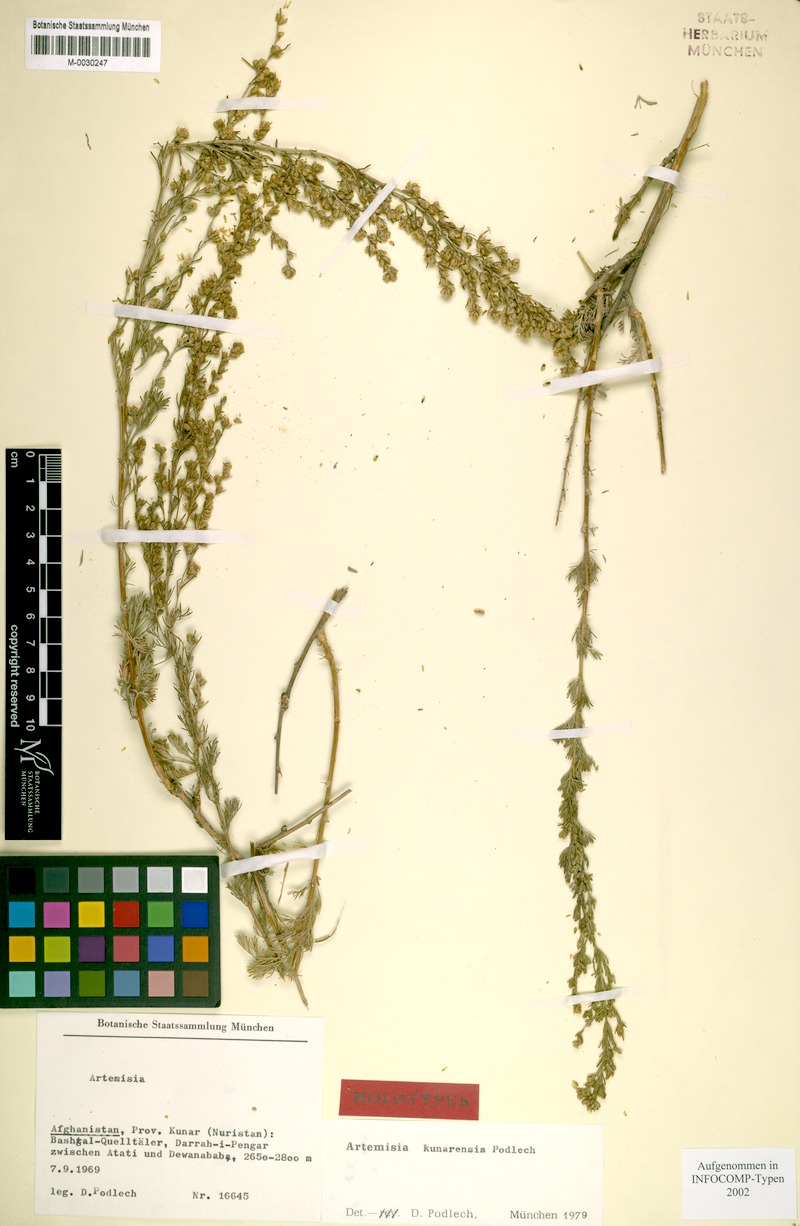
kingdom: Plantae
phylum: Tracheophyta
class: Magnoliopsida
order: Asterales
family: Asteraceae
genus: Artemisia
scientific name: Artemisia
